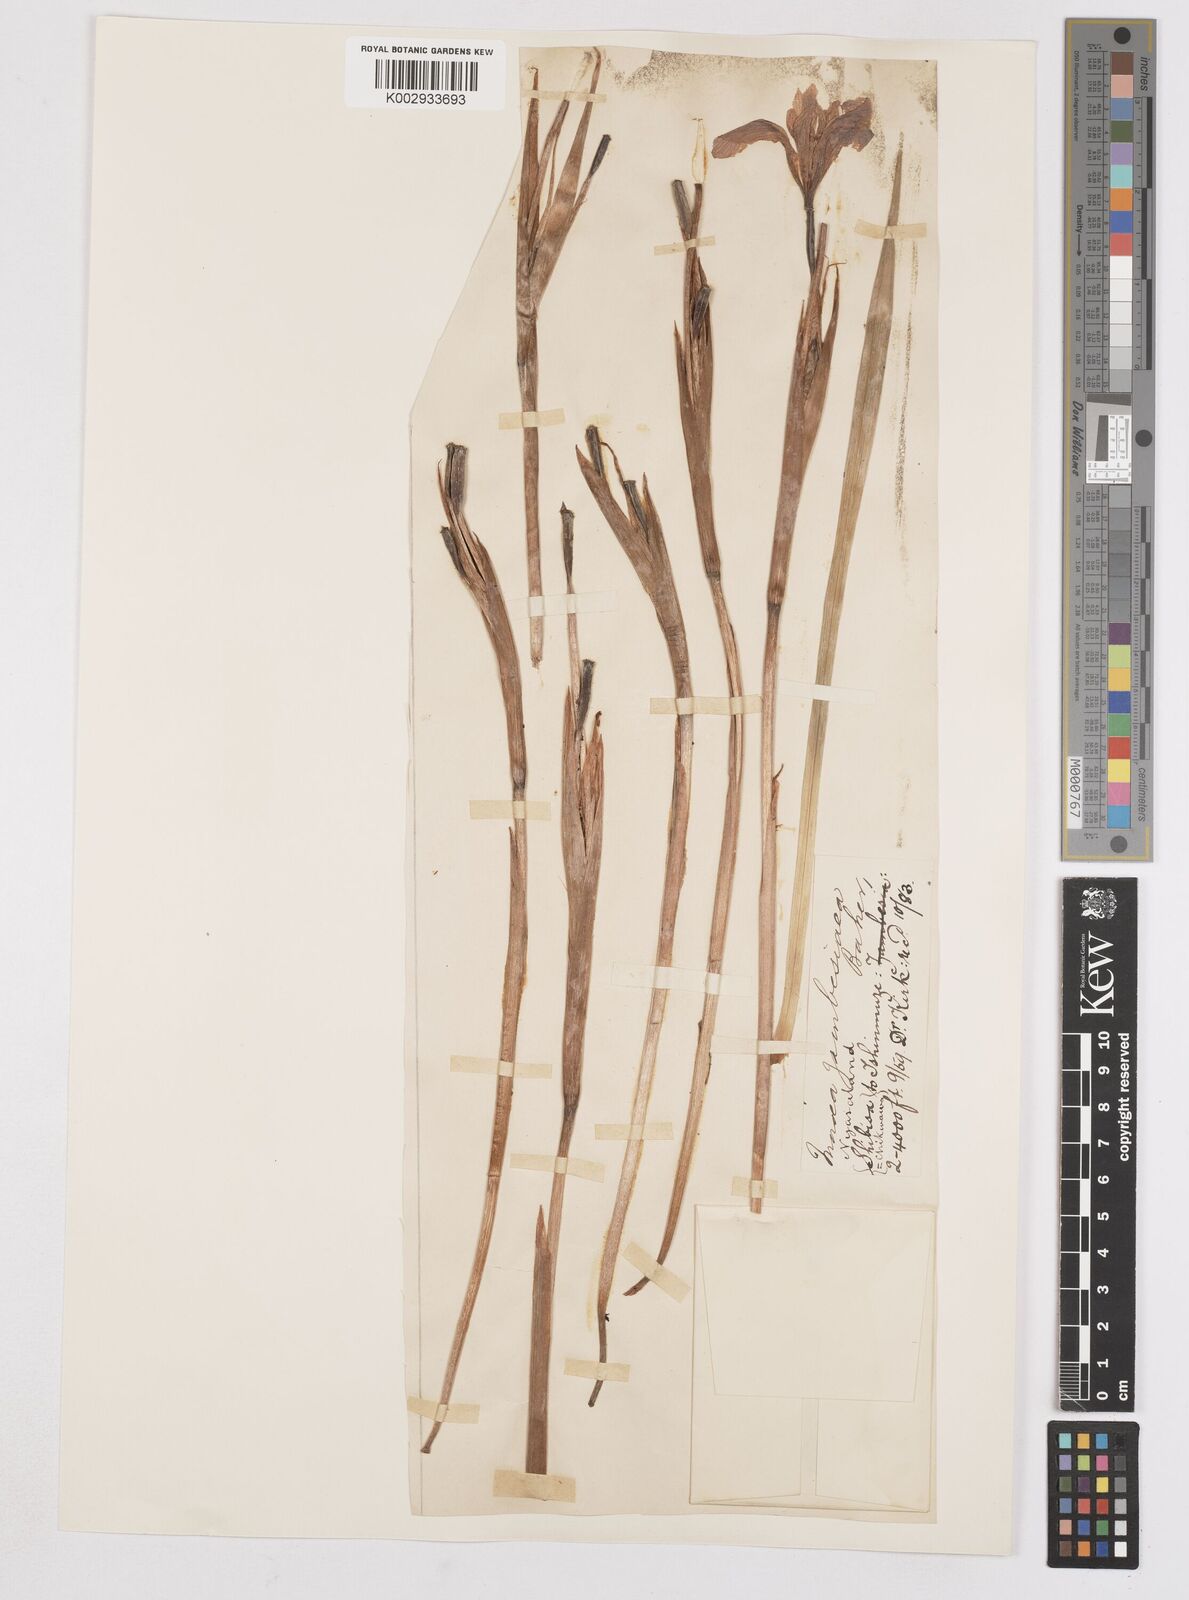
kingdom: Plantae
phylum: Tracheophyta
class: Liliopsida
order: Asparagales
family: Iridaceae
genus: Moraea
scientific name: Moraea schimperi
